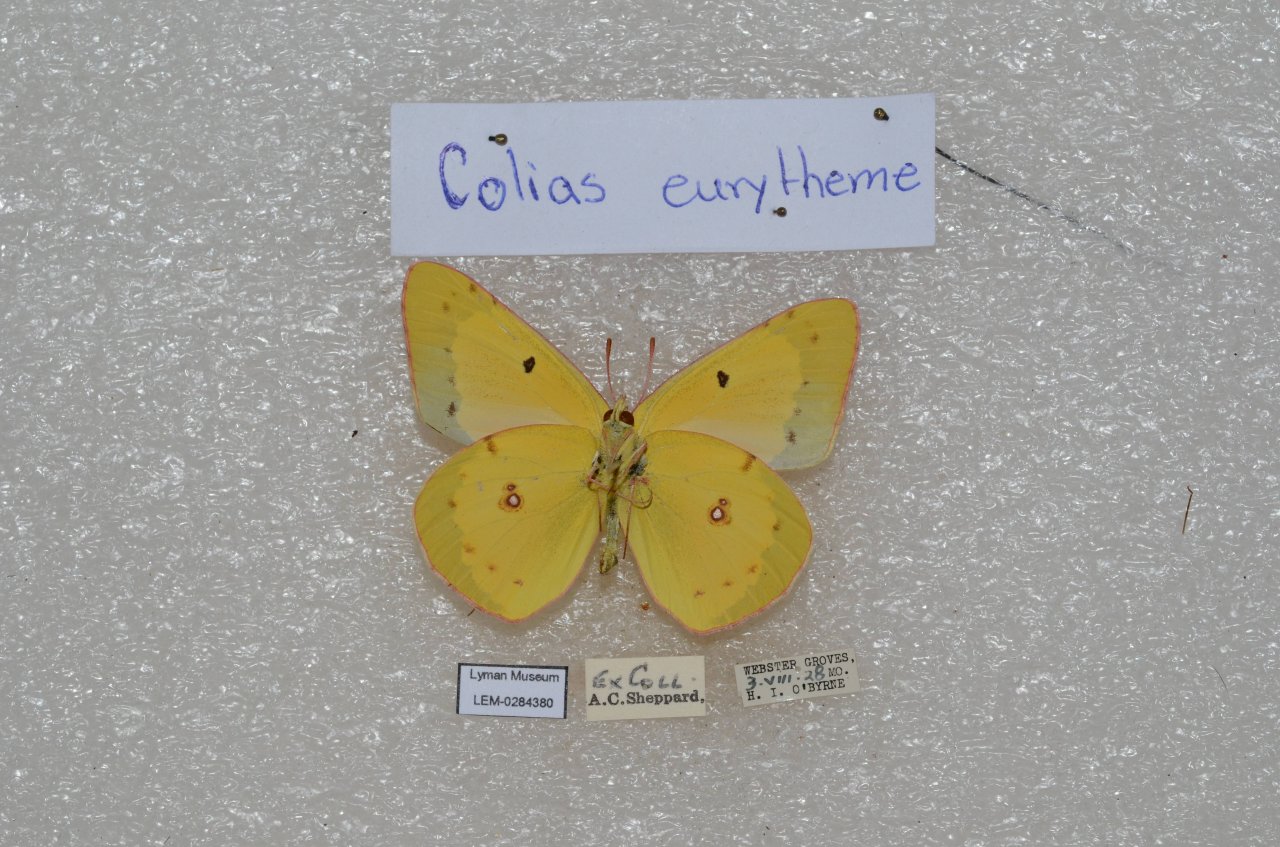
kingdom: Animalia
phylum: Arthropoda
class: Insecta
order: Lepidoptera
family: Pieridae
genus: Colias
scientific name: Colias eurytheme
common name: Orange Sulphur
